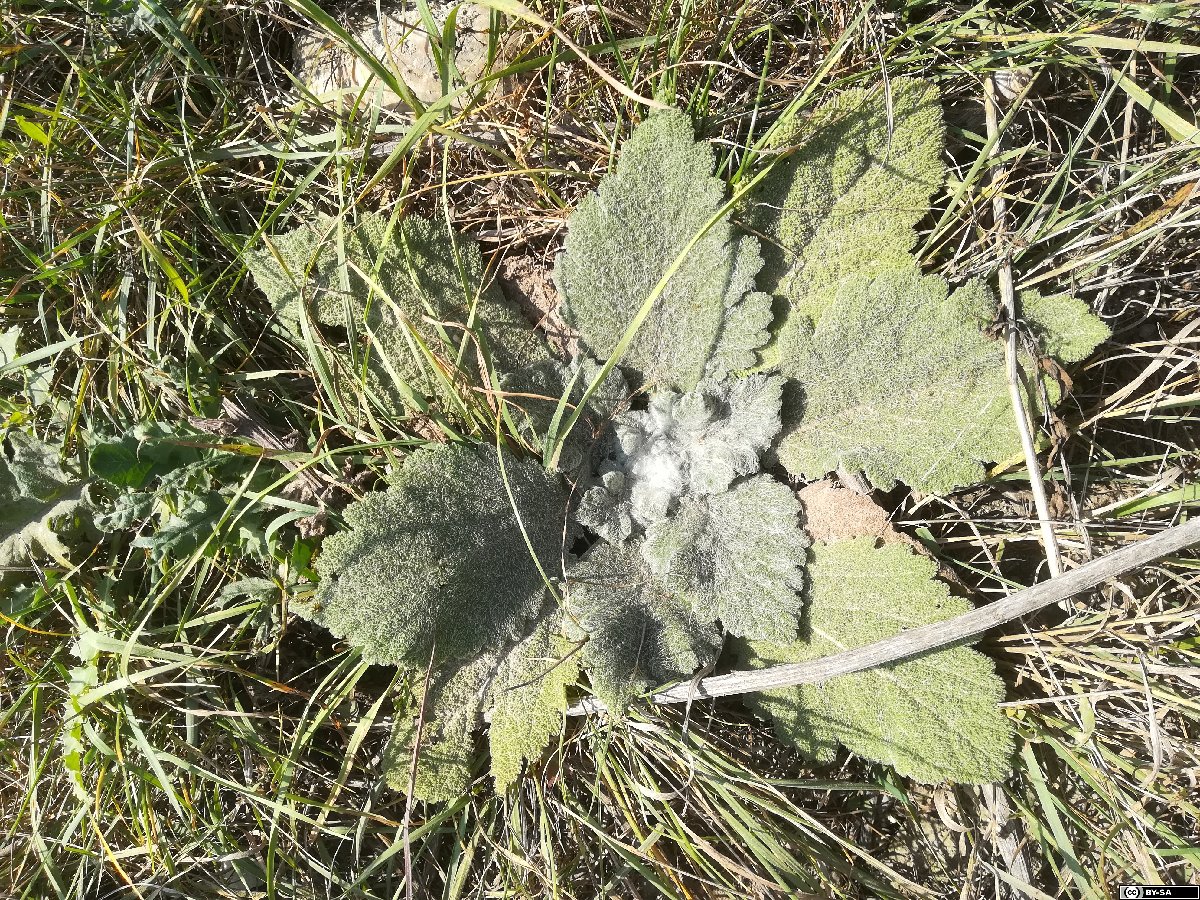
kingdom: Plantae
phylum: Tracheophyta
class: Magnoliopsida
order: Lamiales
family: Lamiaceae
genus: Salvia
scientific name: Salvia aethiopis
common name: Mediterranean sage
